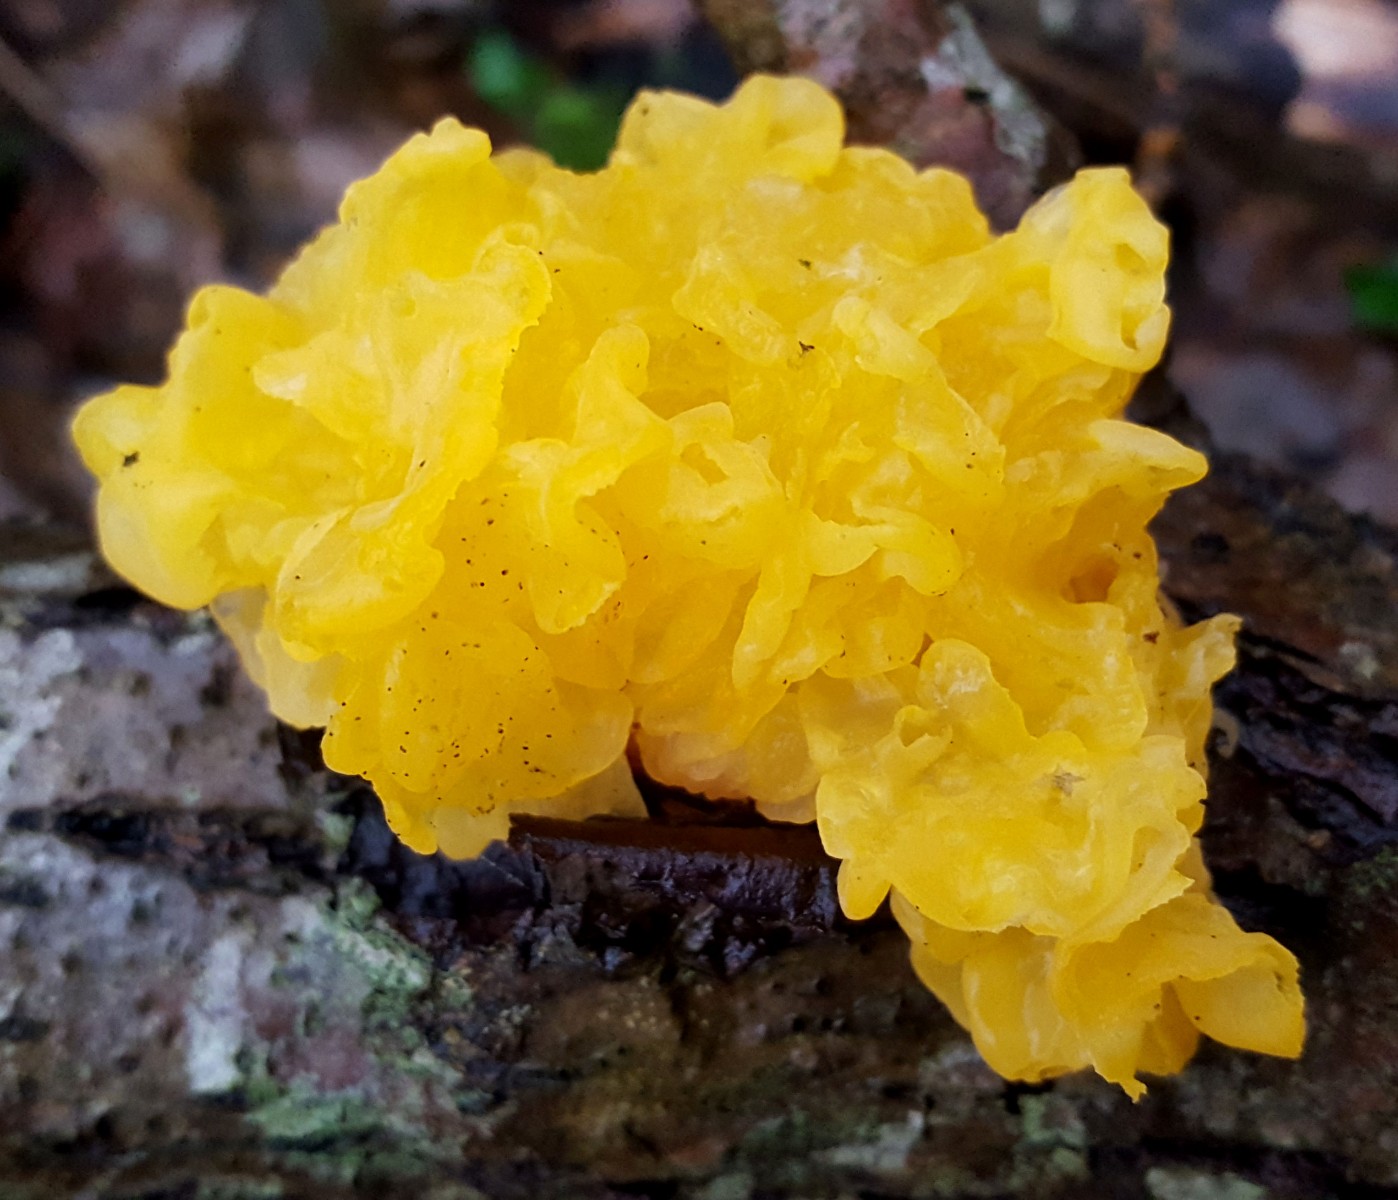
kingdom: Fungi
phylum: Basidiomycota
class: Tremellomycetes
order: Tremellales
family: Tremellaceae
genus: Tremella
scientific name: Tremella mesenterica
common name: gul bævresvamp
